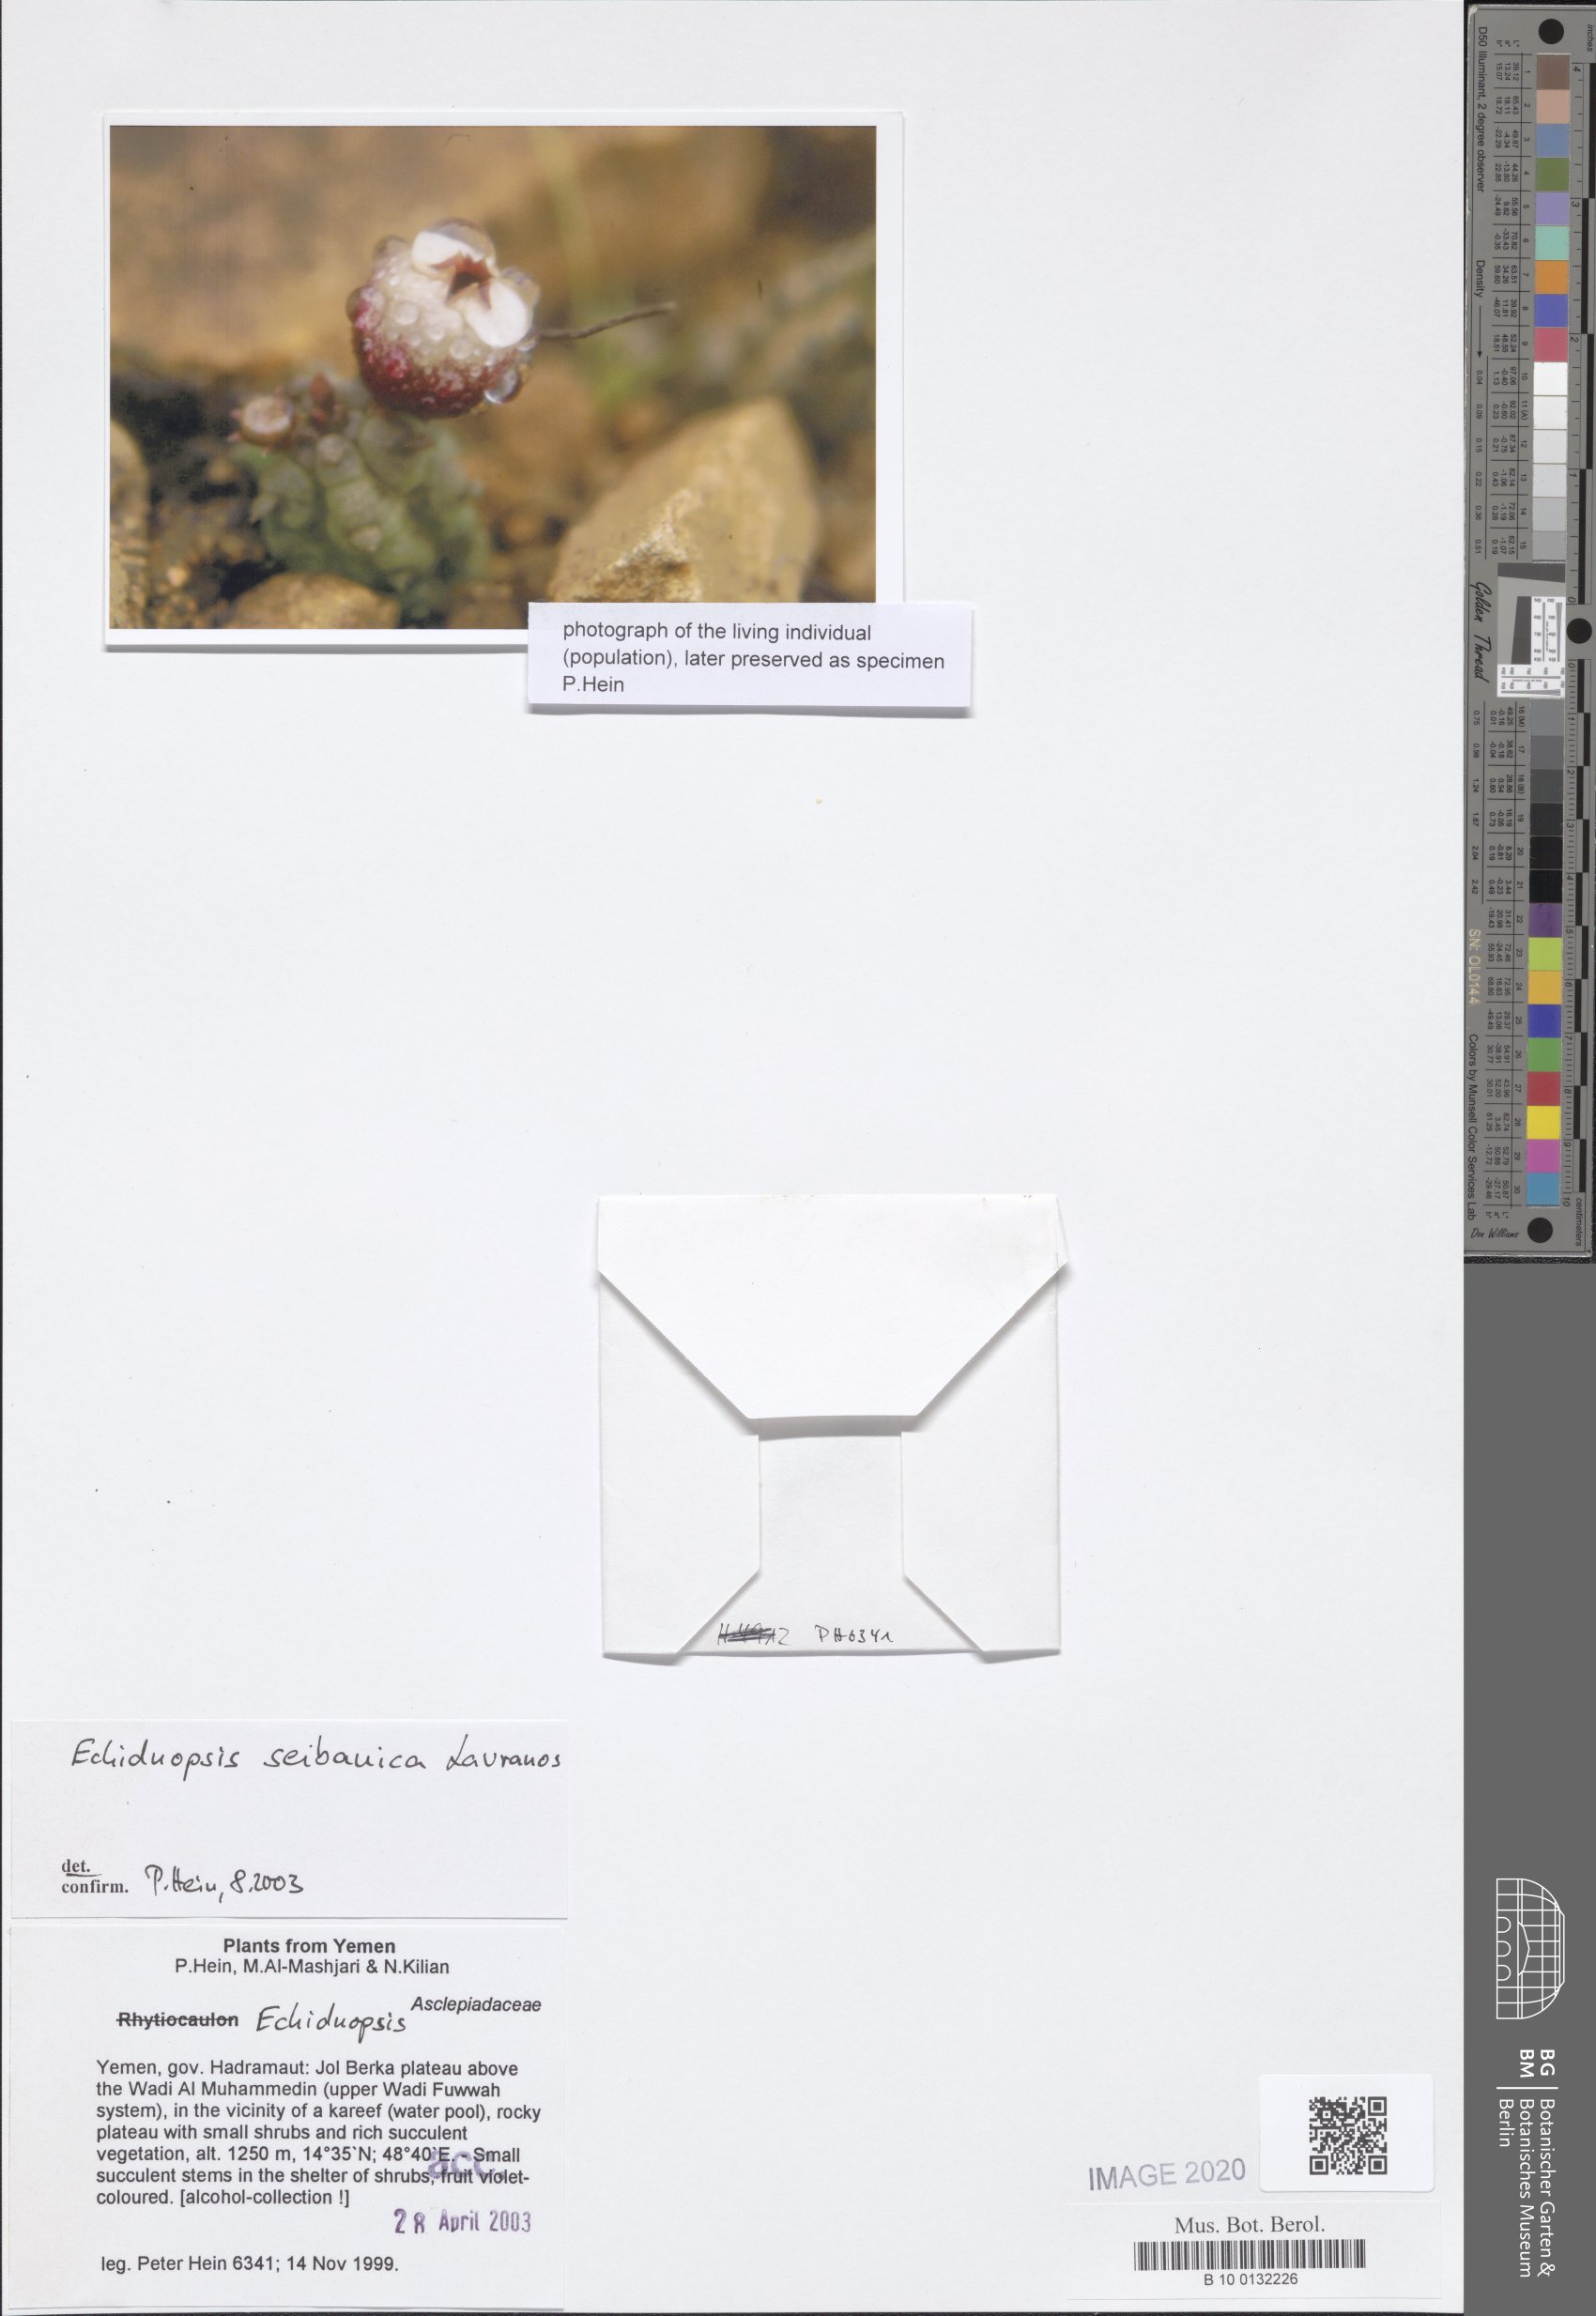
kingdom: Plantae
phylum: Tracheophyta
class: Magnoliopsida
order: Gentianales
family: Apocynaceae
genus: Ceropegia
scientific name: Ceropegia seibanica
